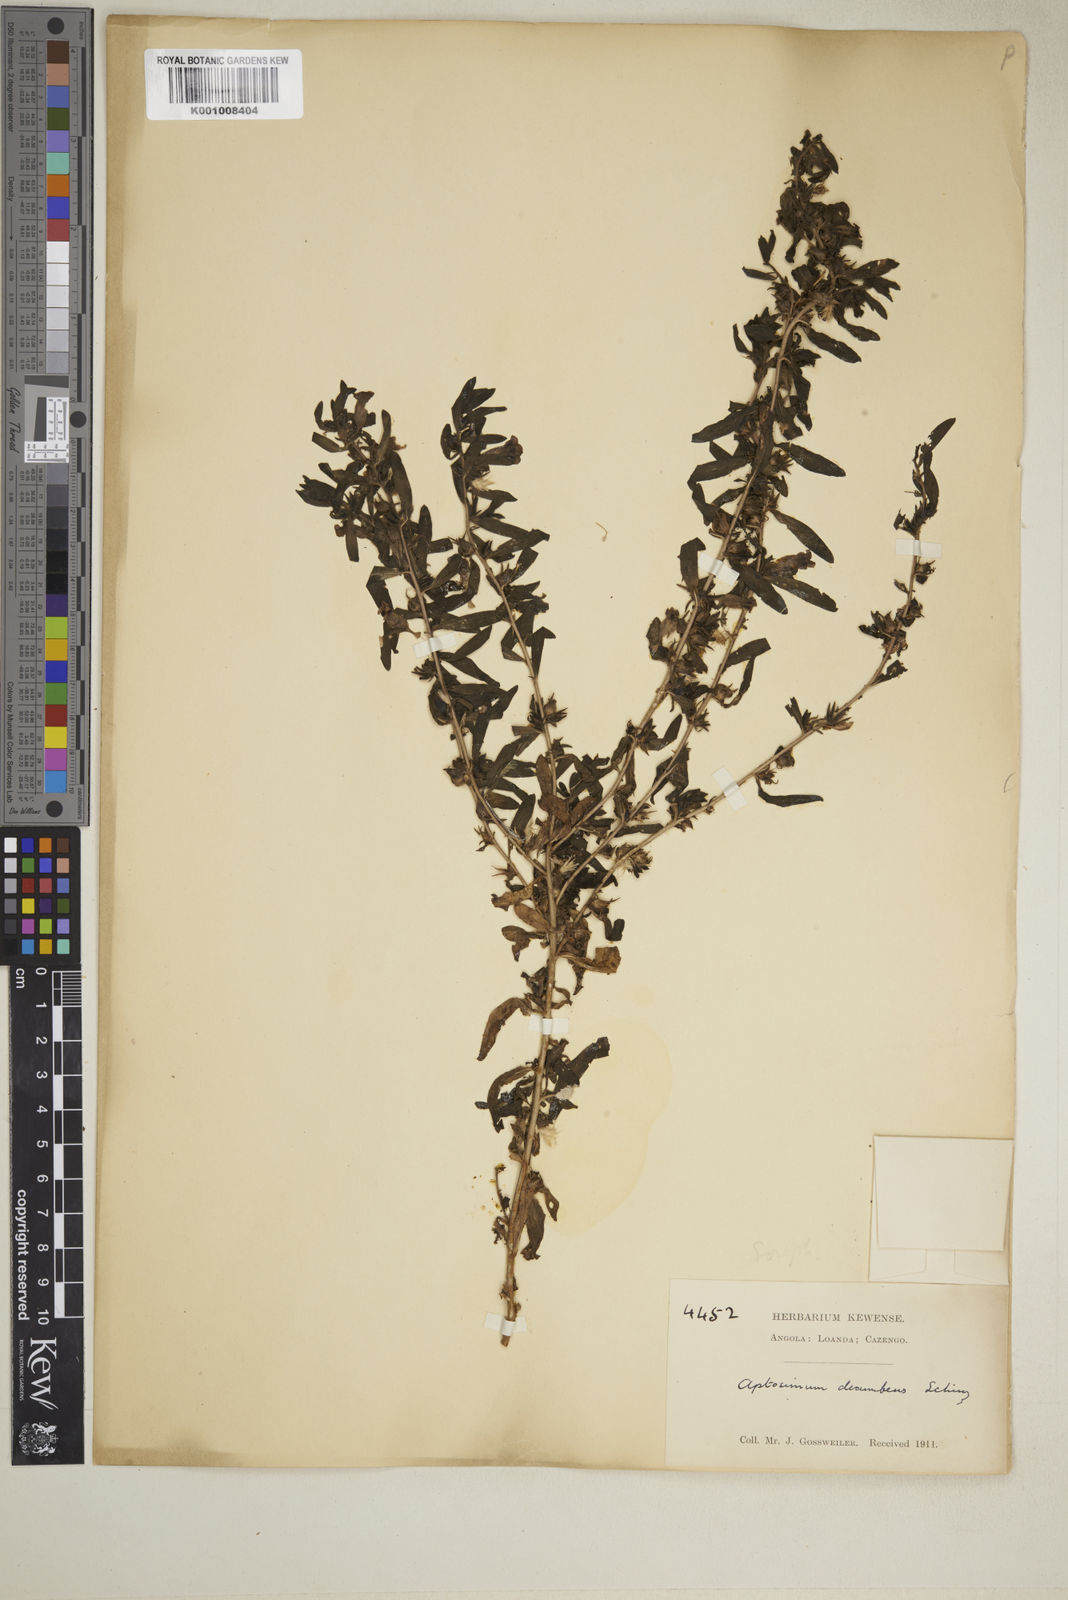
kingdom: Plantae
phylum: Tracheophyta
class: Magnoliopsida
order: Lamiales
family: Scrophulariaceae
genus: Aptosimum
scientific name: Aptosimum decumbens
